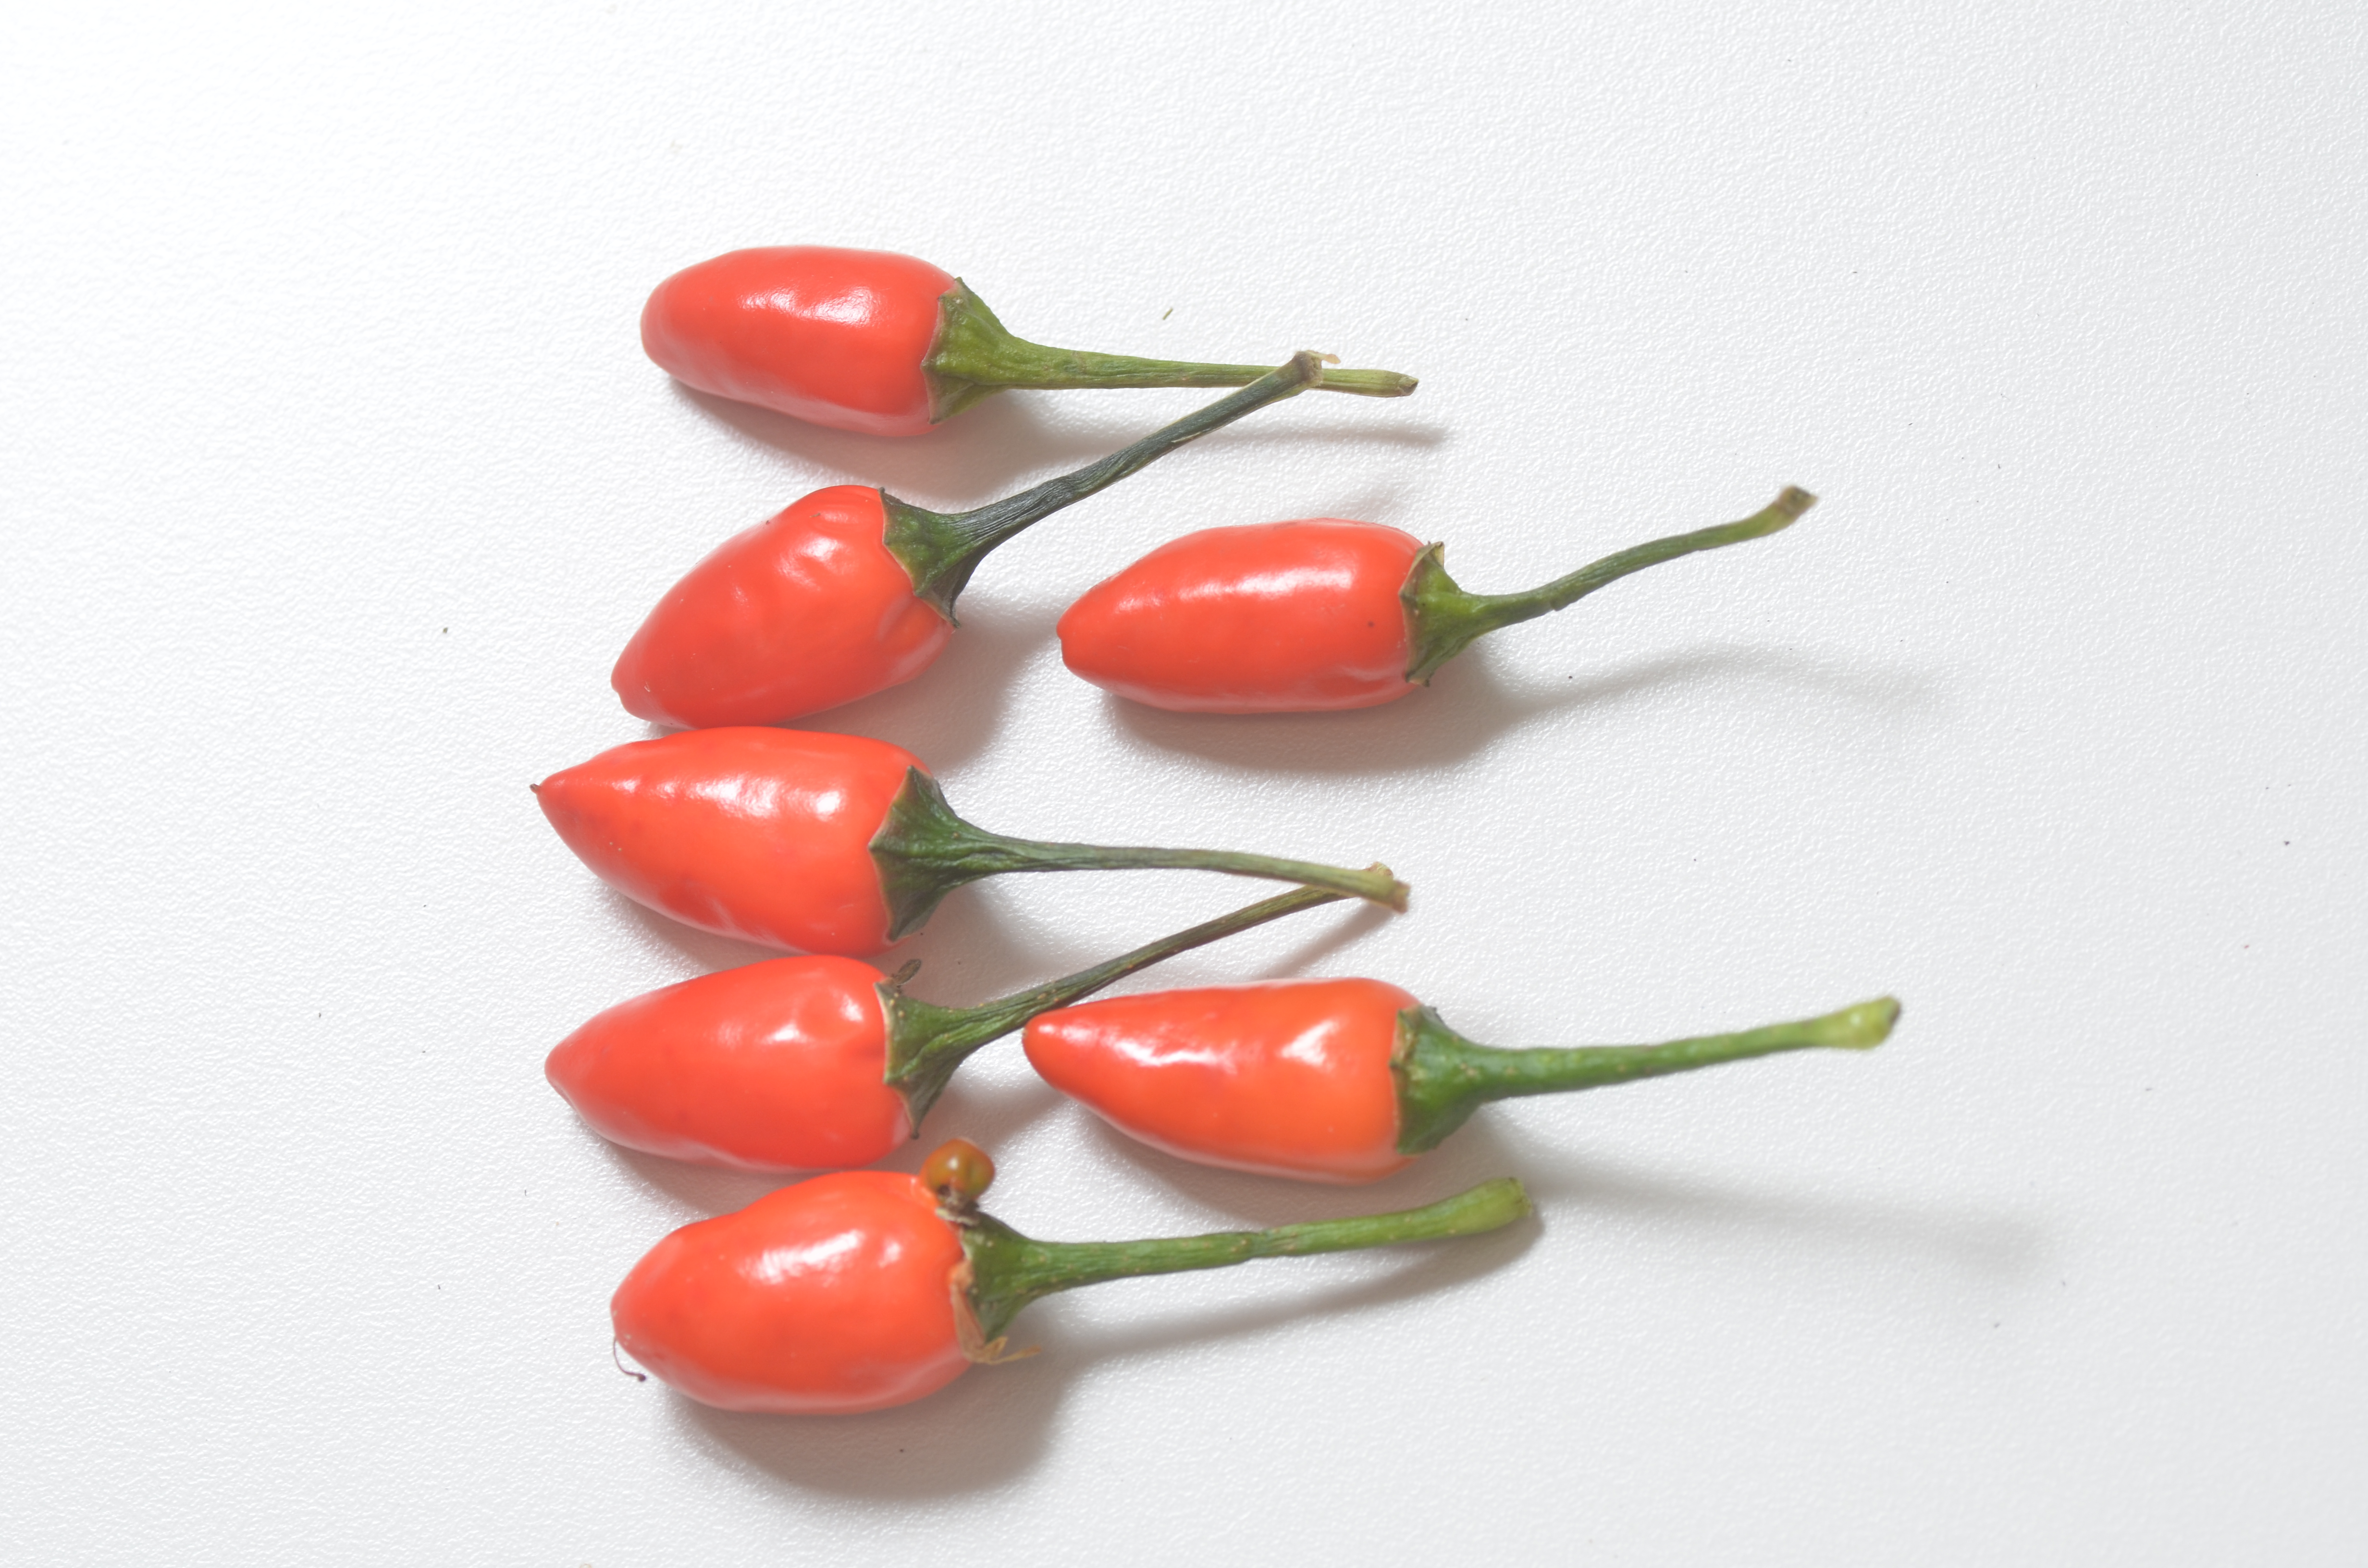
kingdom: Plantae
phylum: Tracheophyta
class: Magnoliopsida
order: Solanales
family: Solanaceae
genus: Capsicum
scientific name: Capsicum annuum
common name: Sweet pepper
